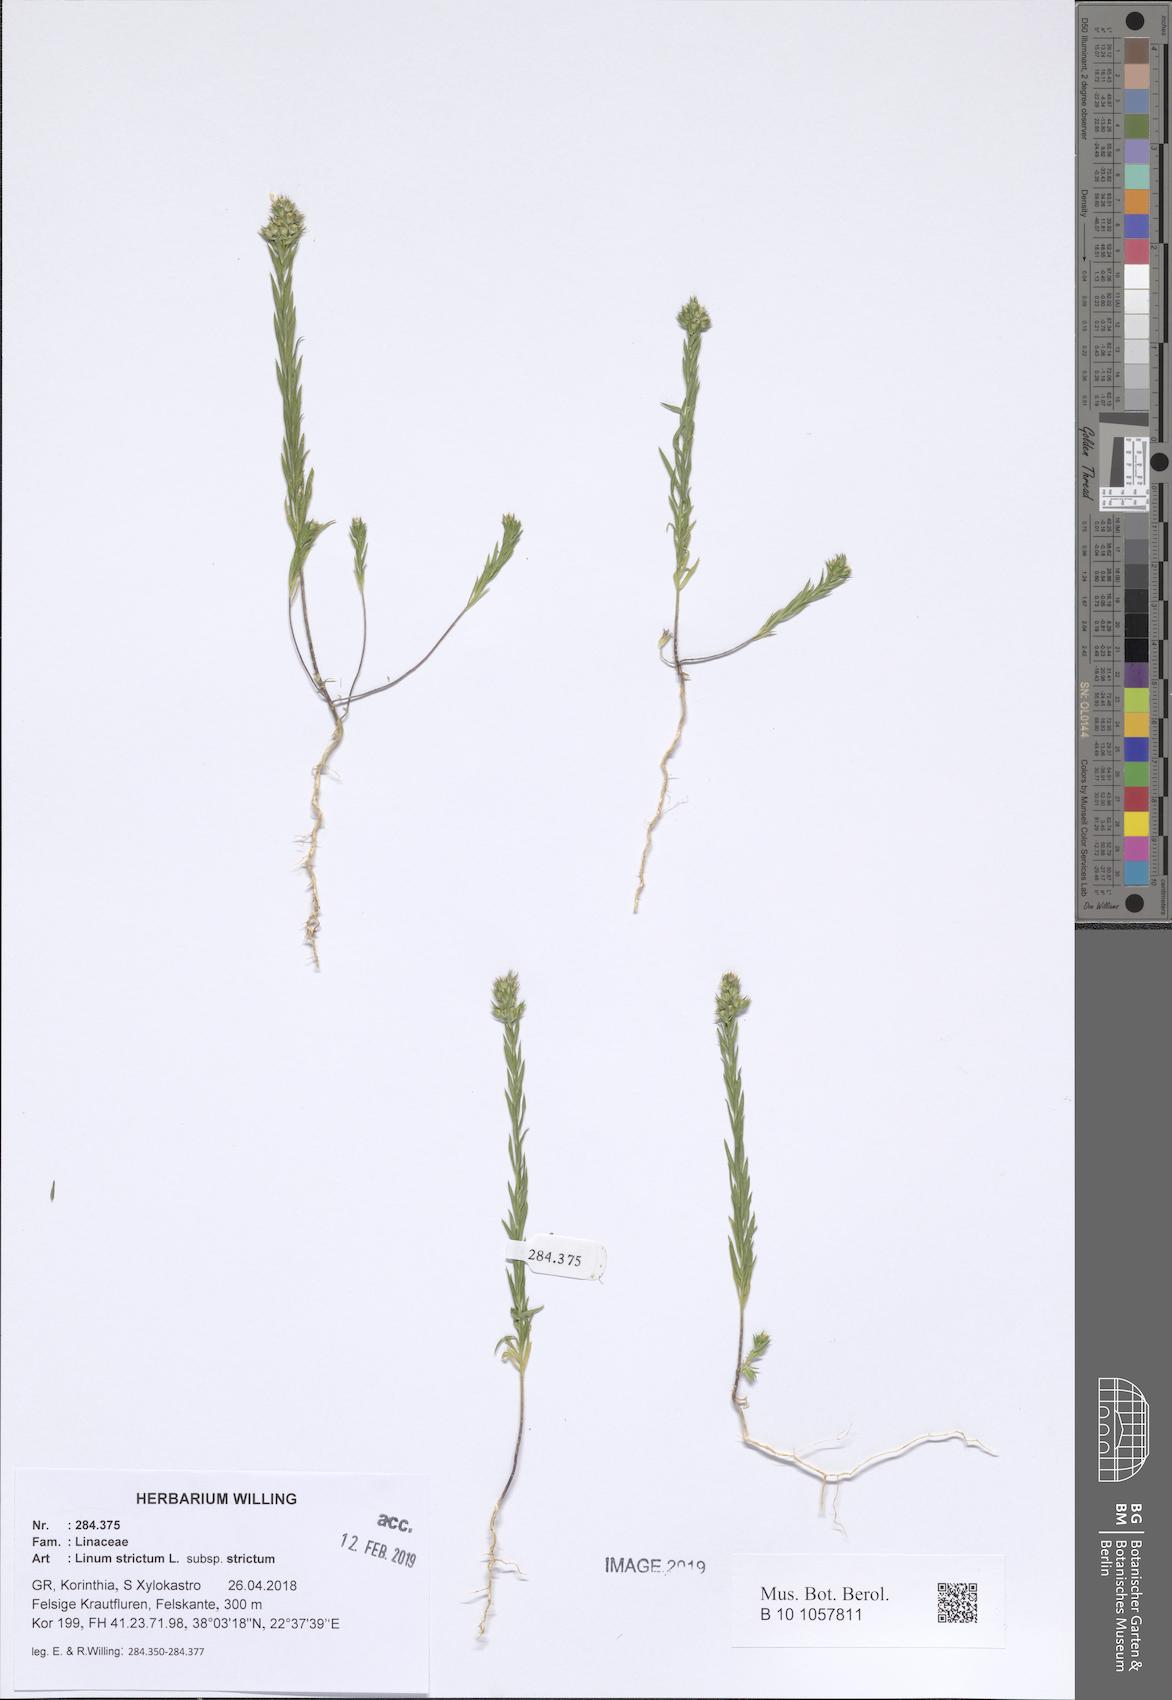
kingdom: Plantae
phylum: Tracheophyta
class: Magnoliopsida
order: Malpighiales
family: Linaceae
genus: Linum
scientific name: Linum strictum
